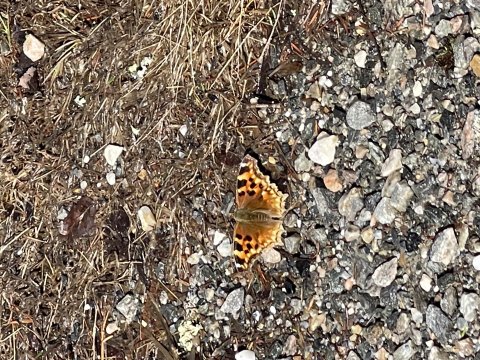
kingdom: Animalia
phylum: Arthropoda
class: Insecta
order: Lepidoptera
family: Nymphalidae
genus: Polygonia
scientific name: Polygonia vaualbum
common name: Compton Tortoiseshell
